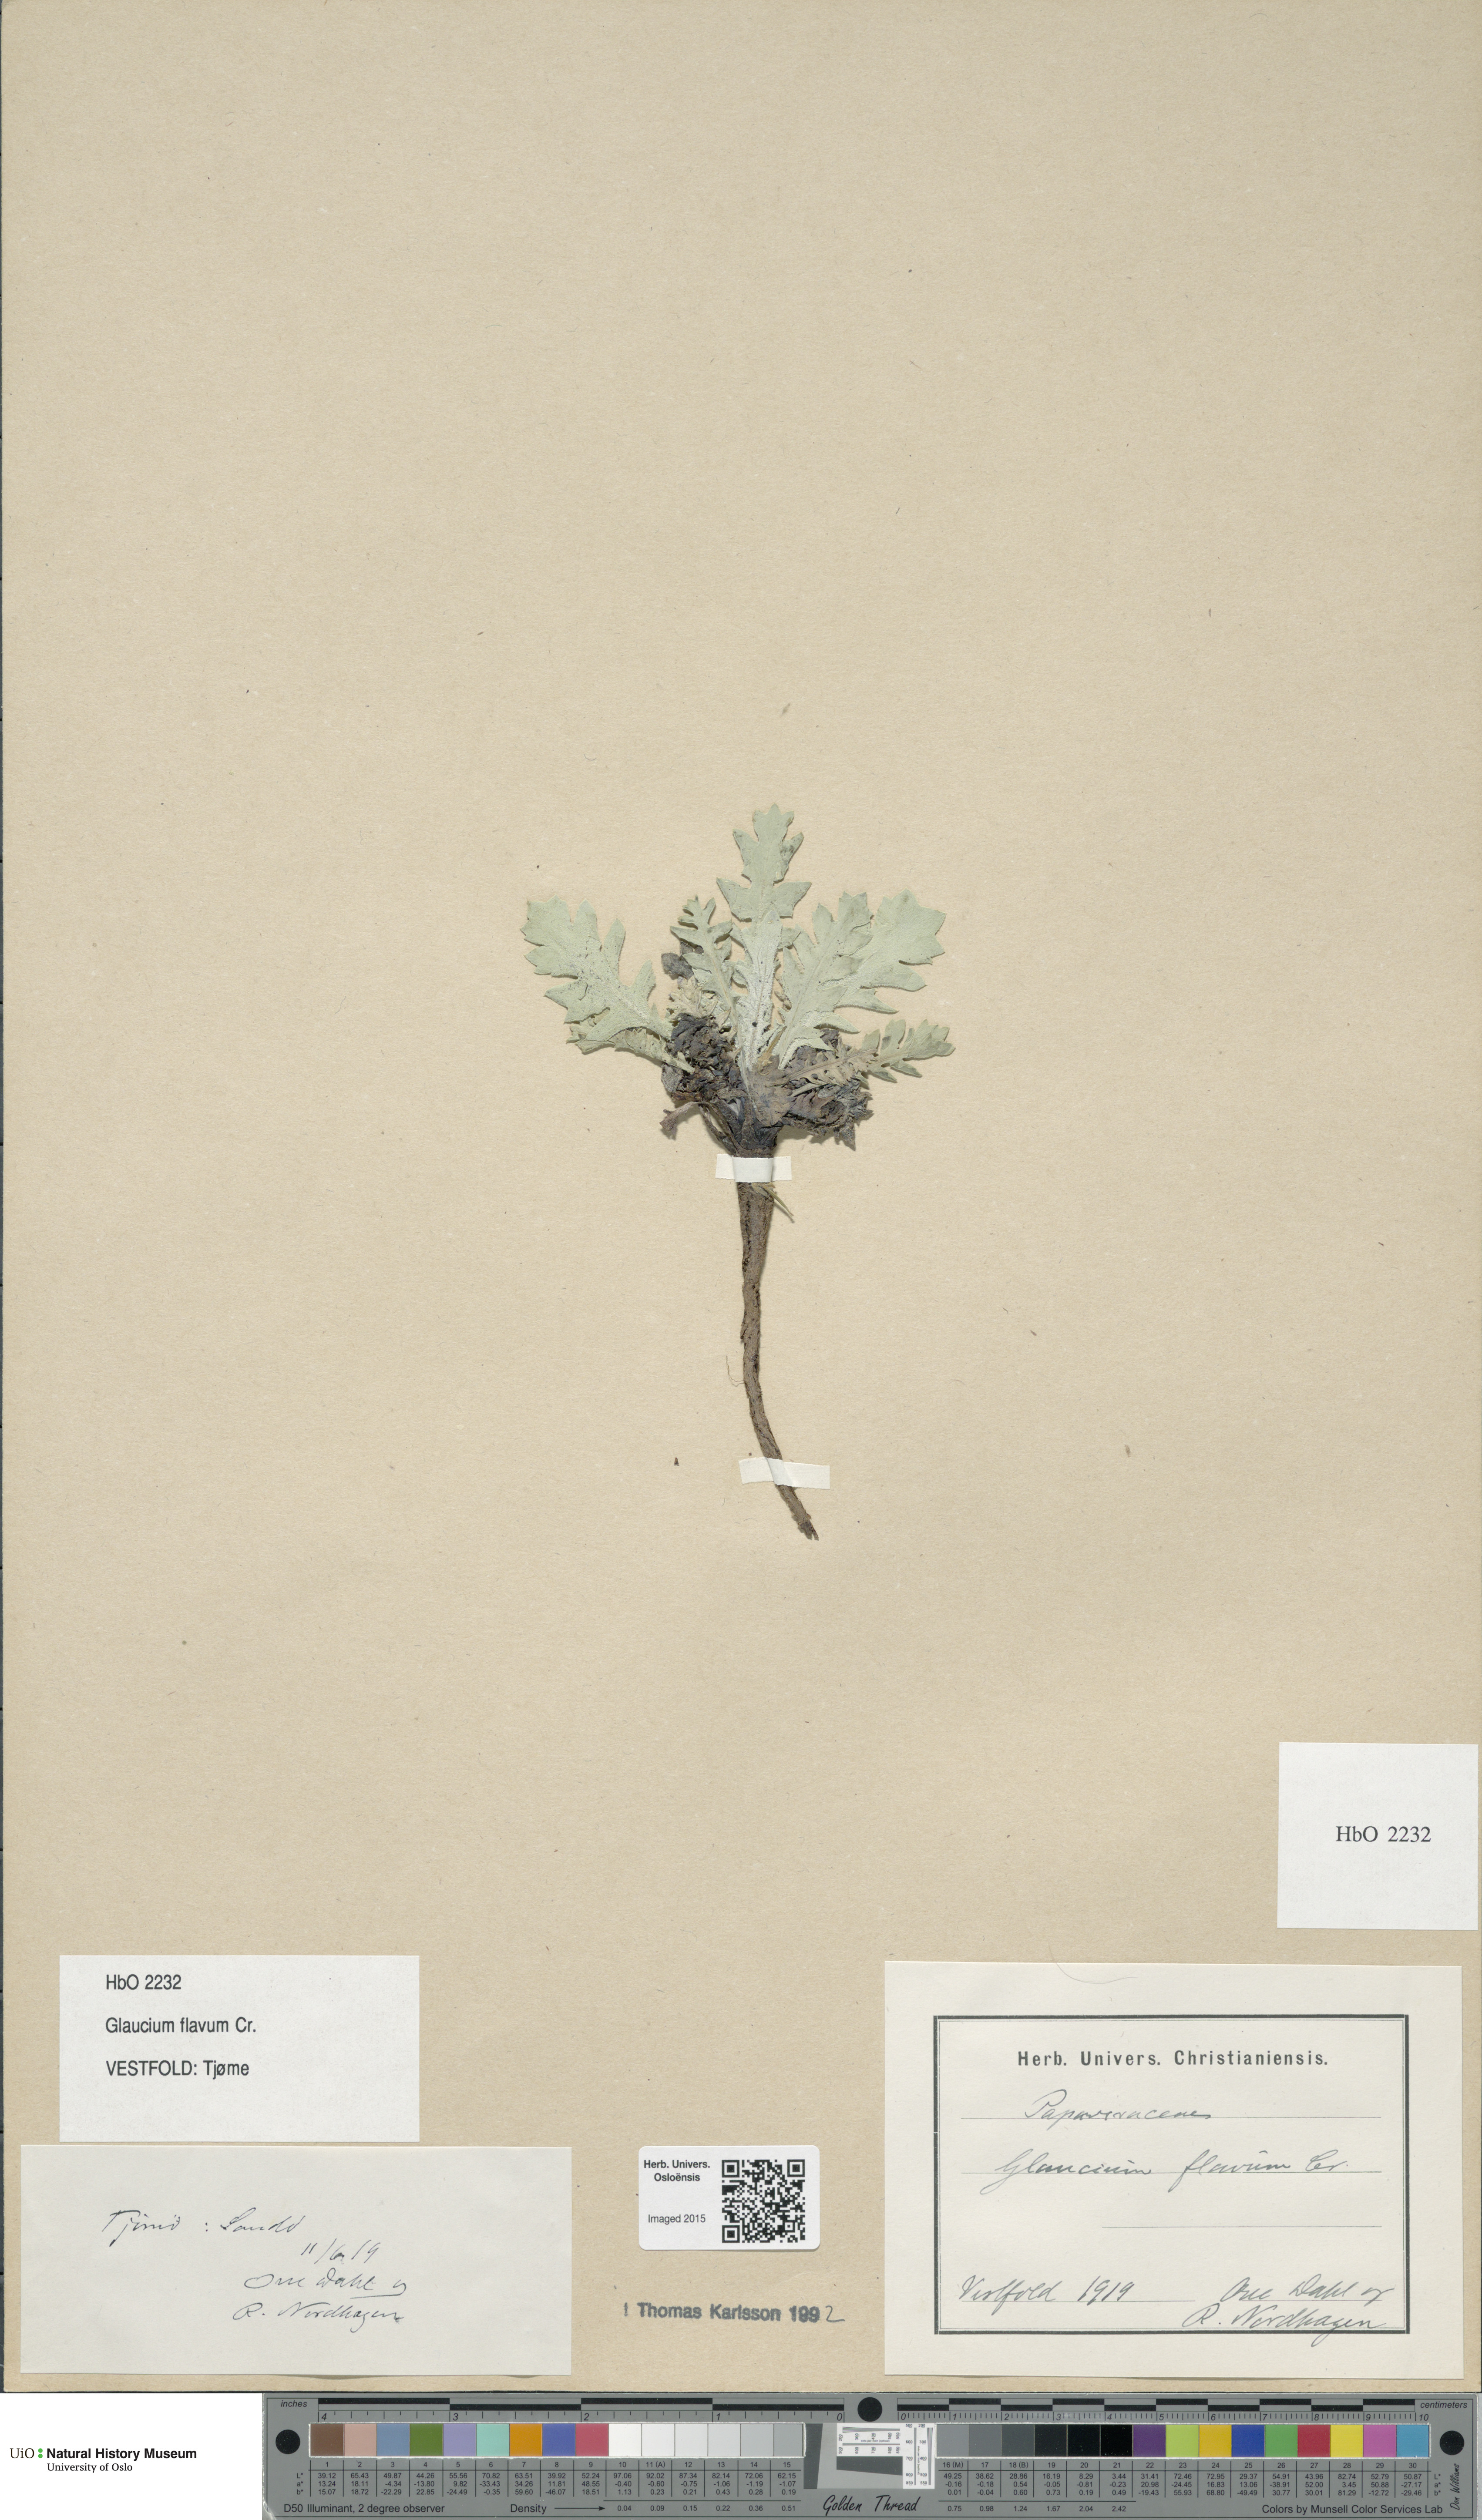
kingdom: Plantae
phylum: Tracheophyta
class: Magnoliopsida
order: Ranunculales
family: Papaveraceae
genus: Glaucium
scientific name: Glaucium flavum
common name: Yellow horned-poppy
